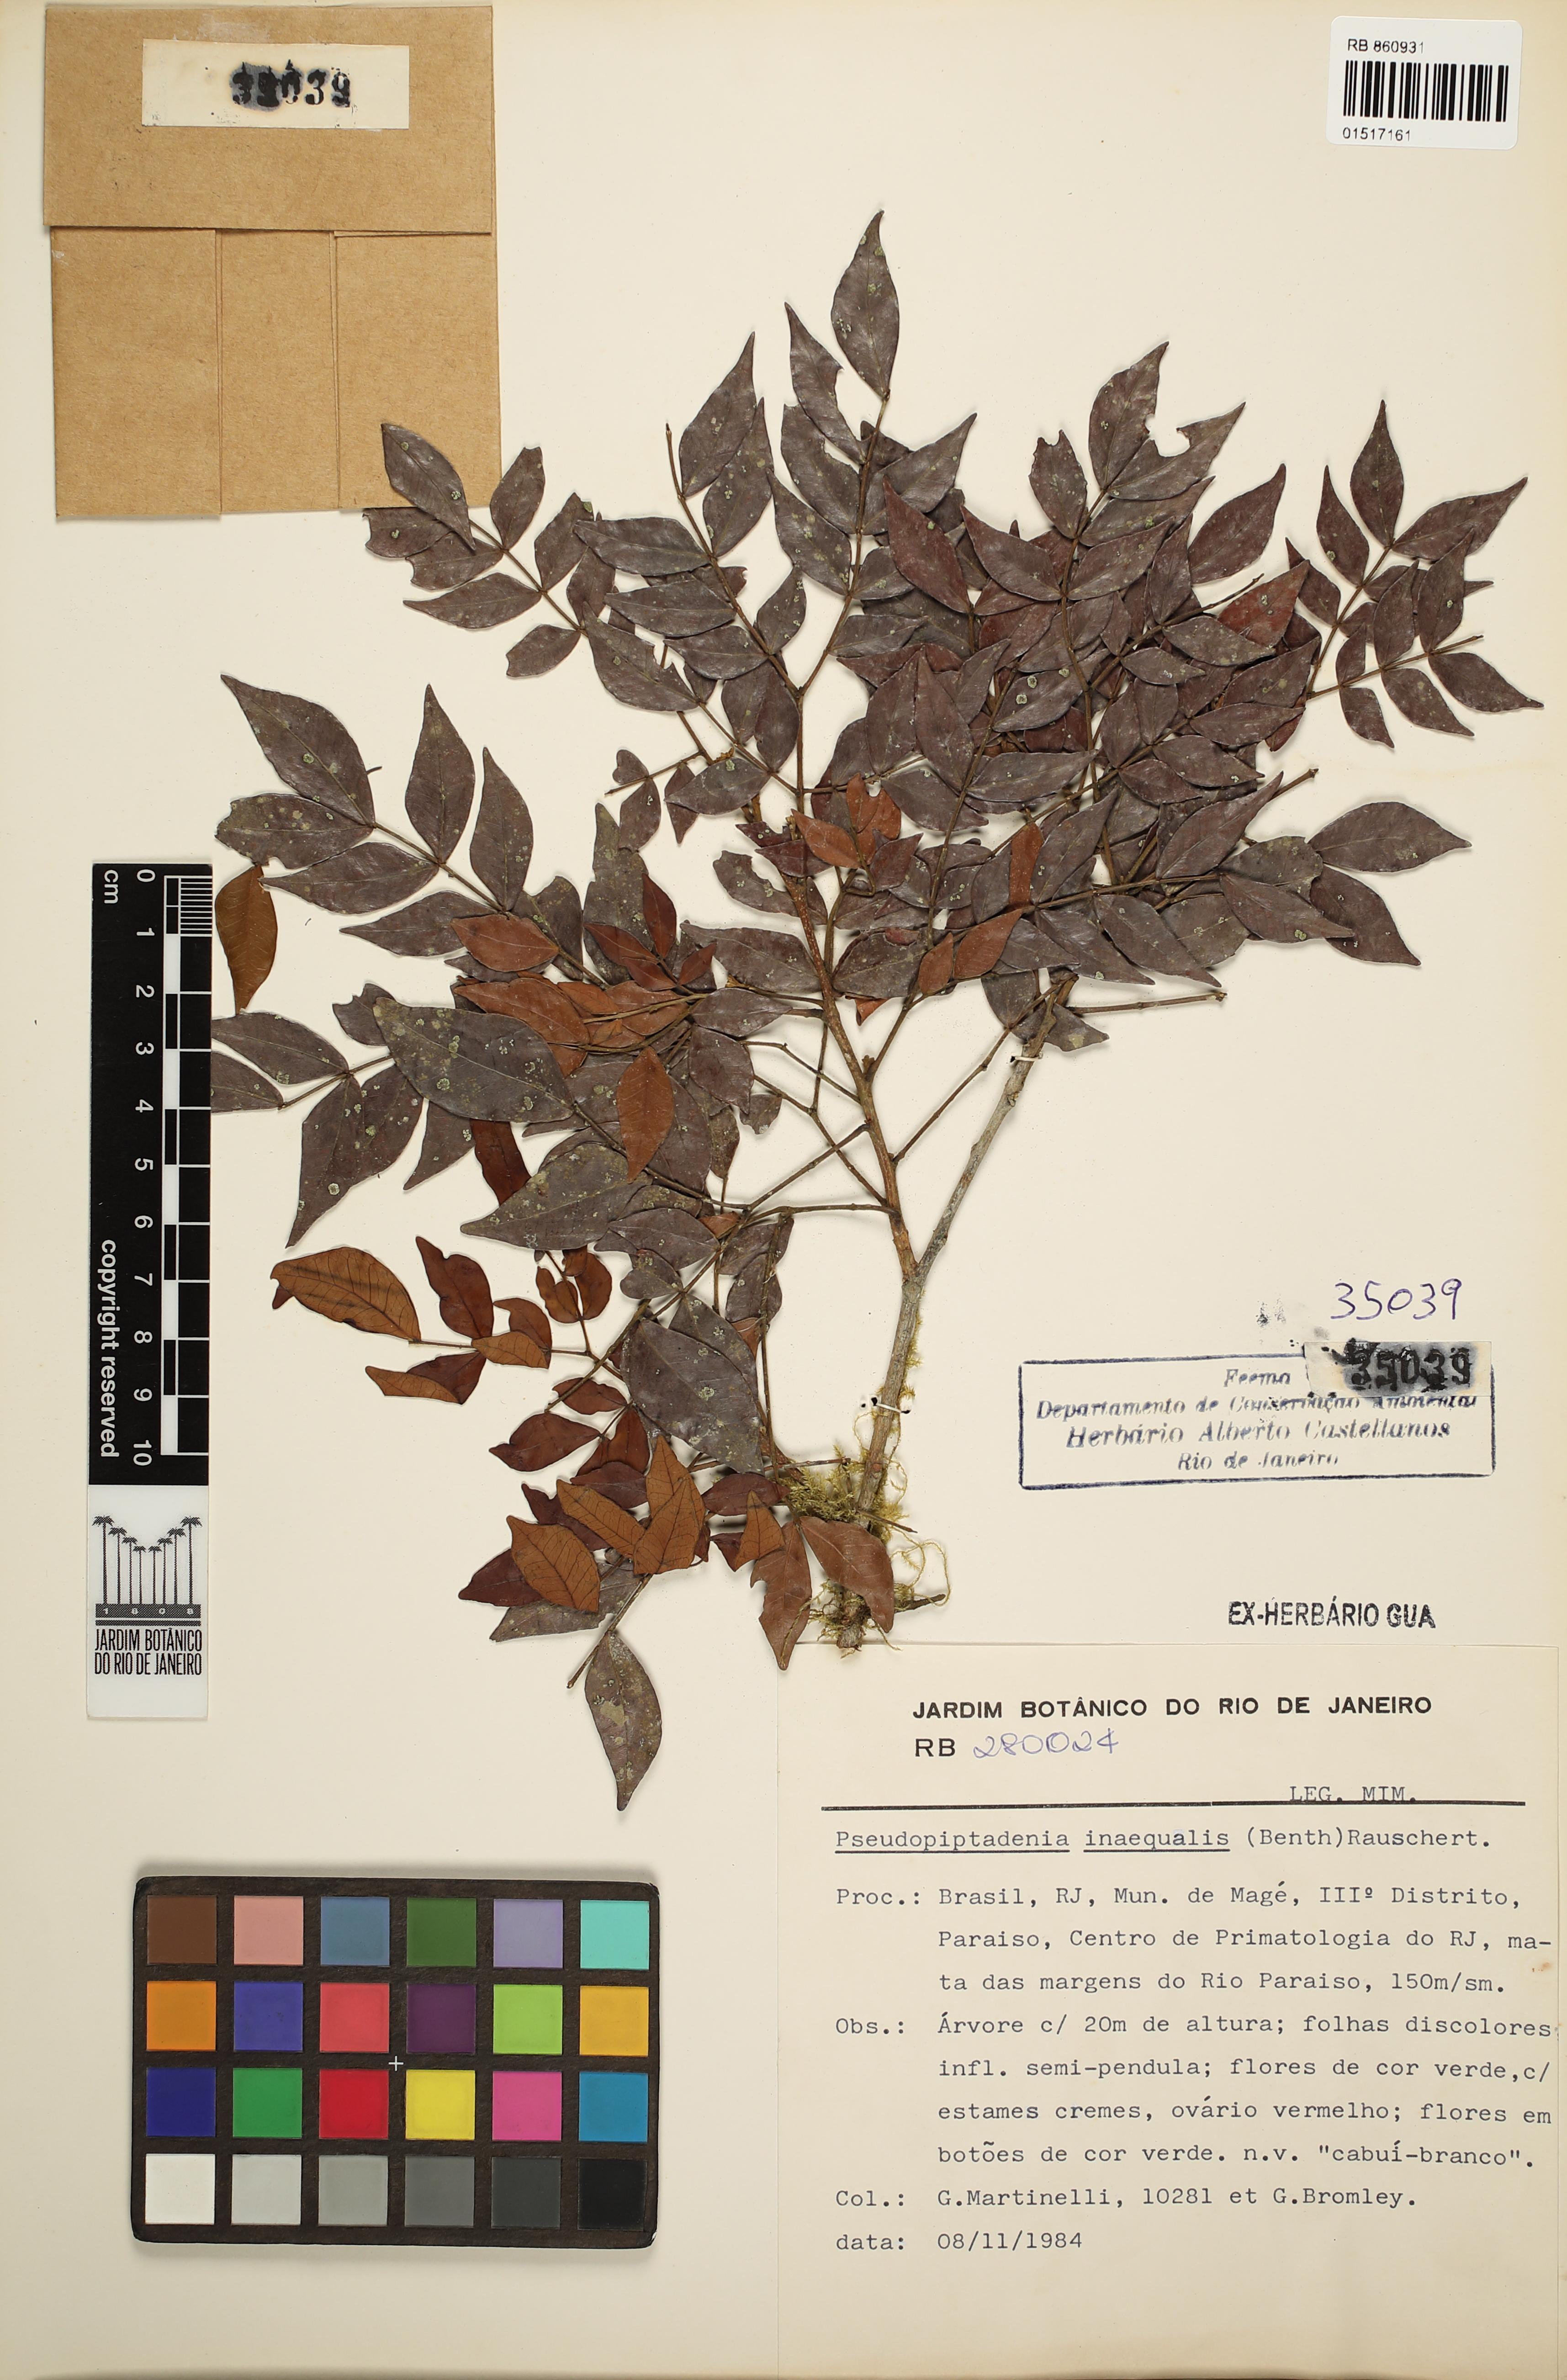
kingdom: Plantae
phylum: Tracheophyta
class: Magnoliopsida
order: Fabales
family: Fabaceae
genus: Pseudopiptadenia
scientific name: Pseudopiptadenia inaequalis
